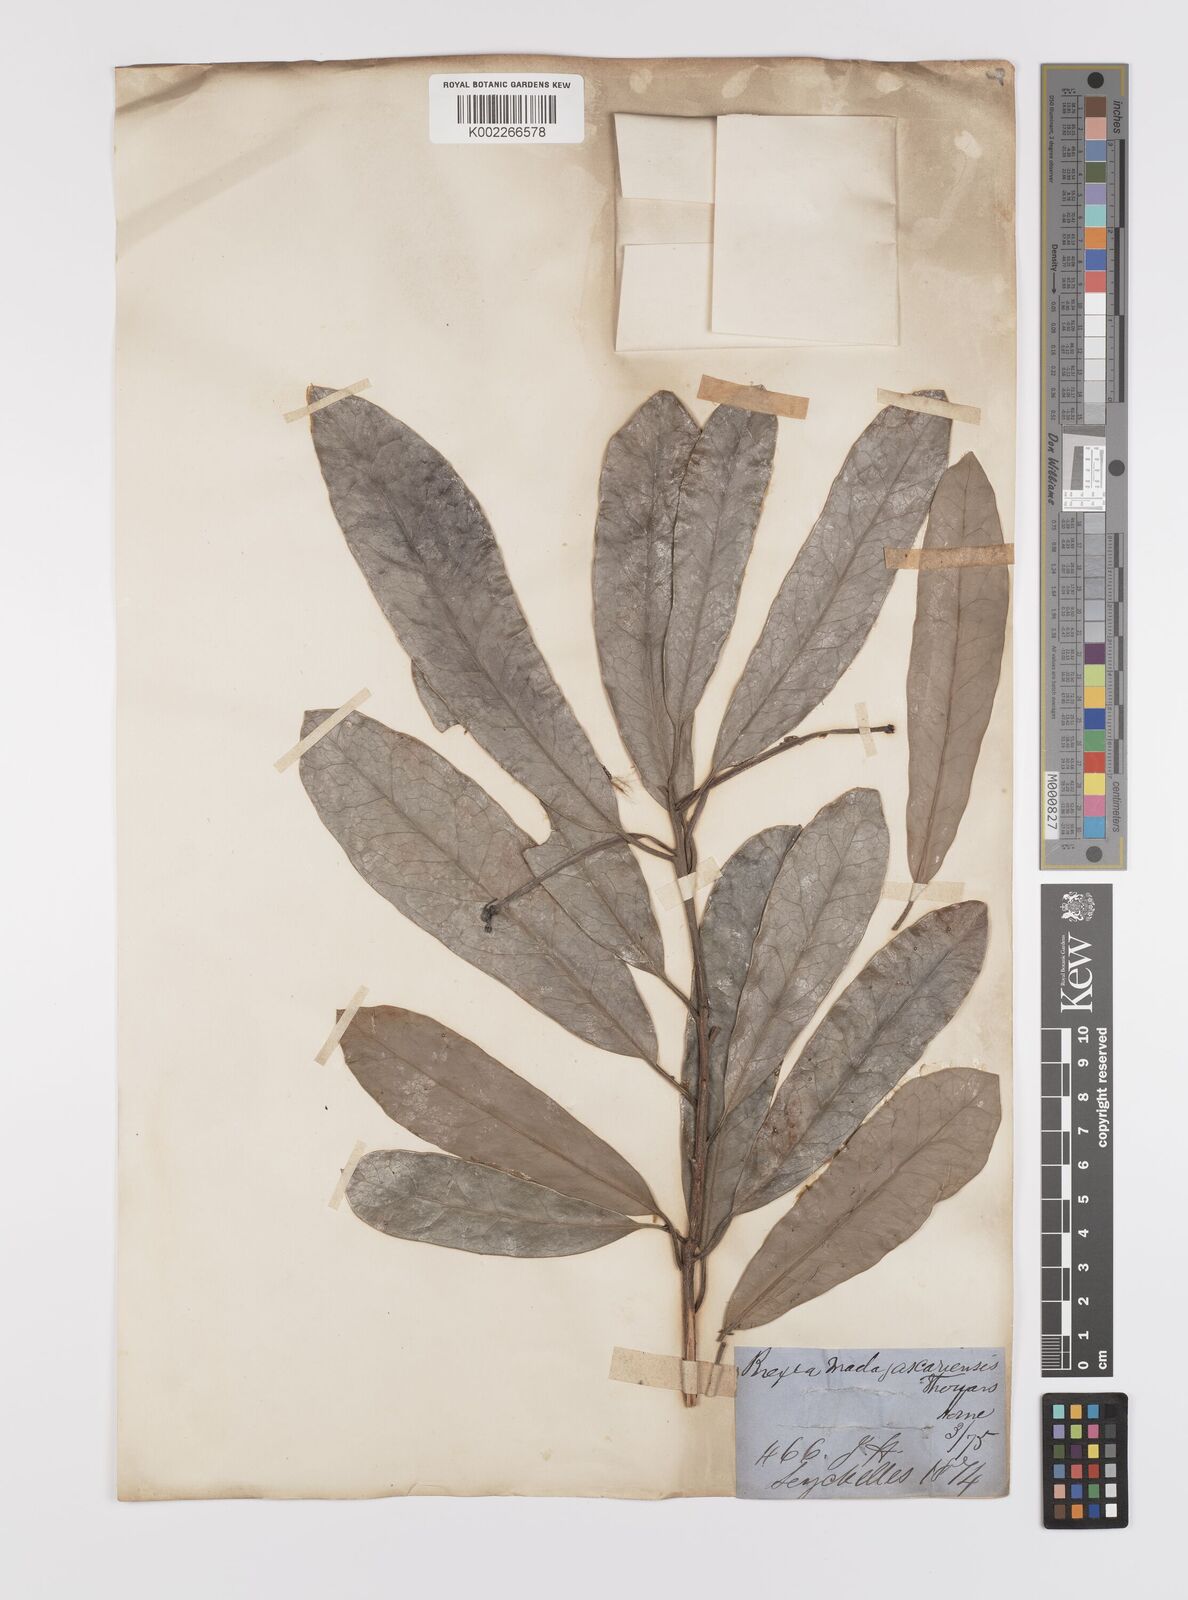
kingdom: Plantae
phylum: Tracheophyta
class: Magnoliopsida
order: Celastrales
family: Celastraceae
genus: Brexia
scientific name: Brexia madagascariensis
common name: Brexia
